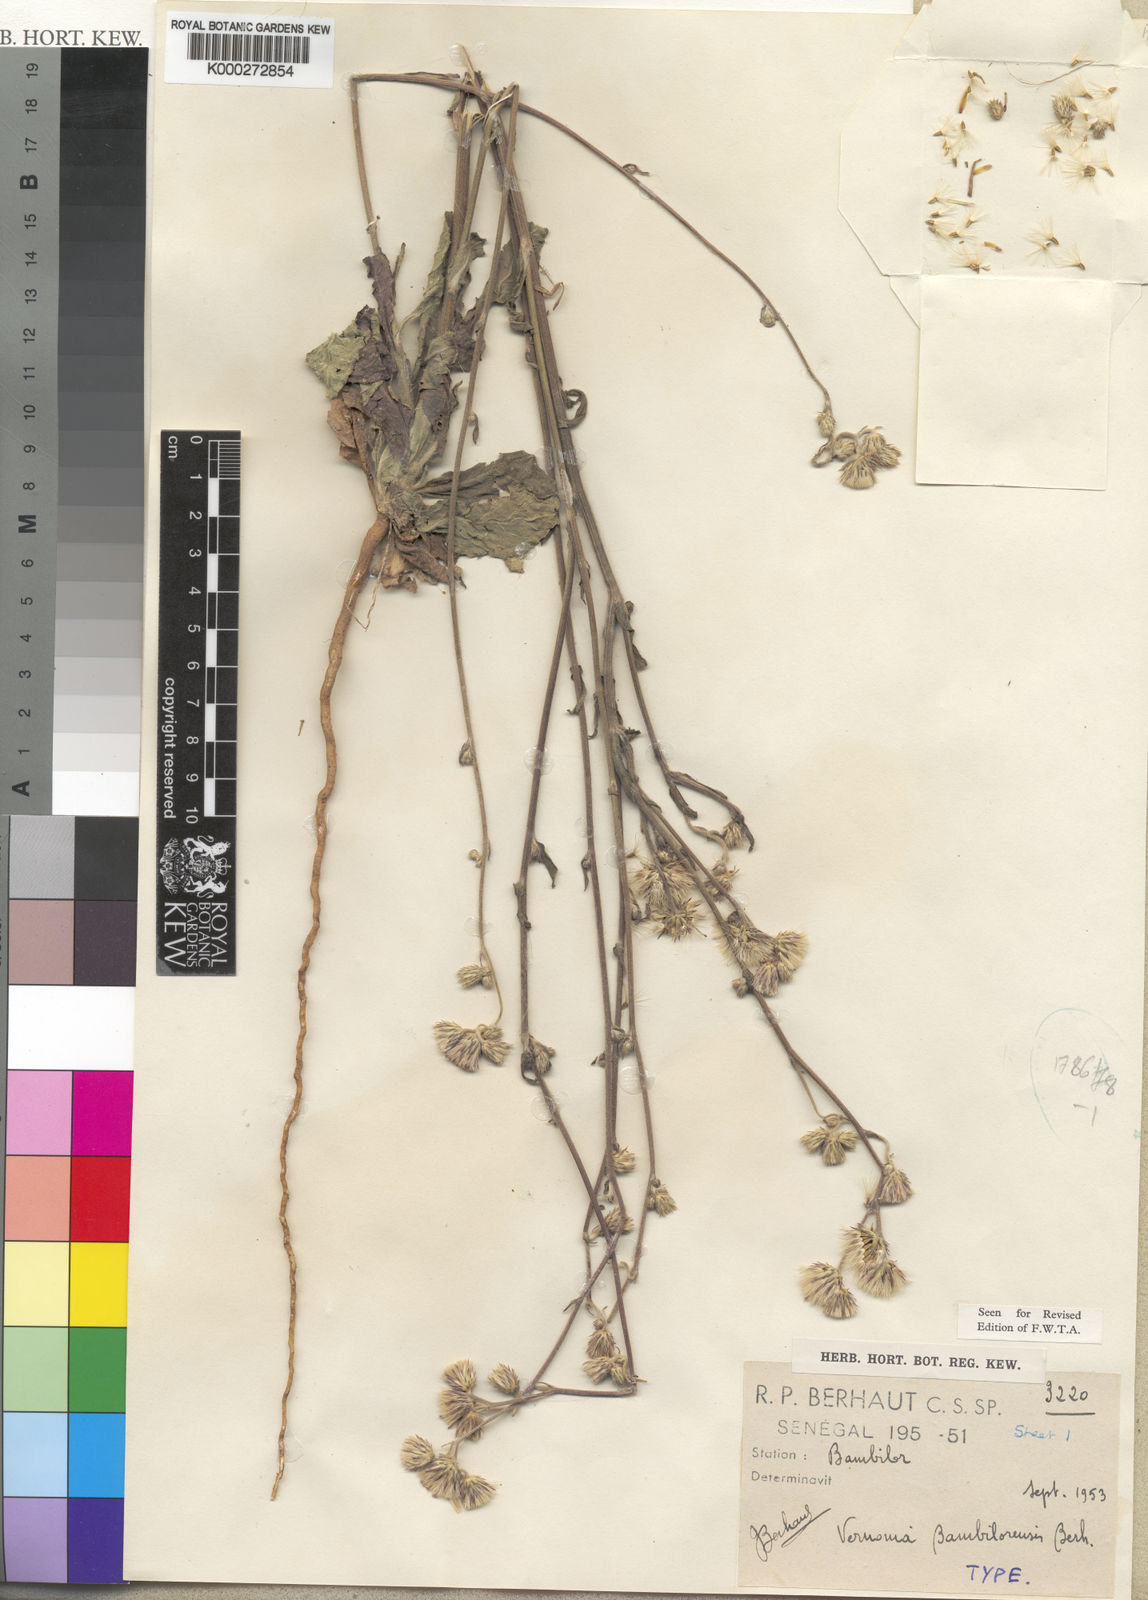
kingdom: Plantae
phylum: Tracheophyta
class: Magnoliopsida
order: Asterales
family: Asteraceae
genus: Vernonia
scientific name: Vernonia bambilorensis
